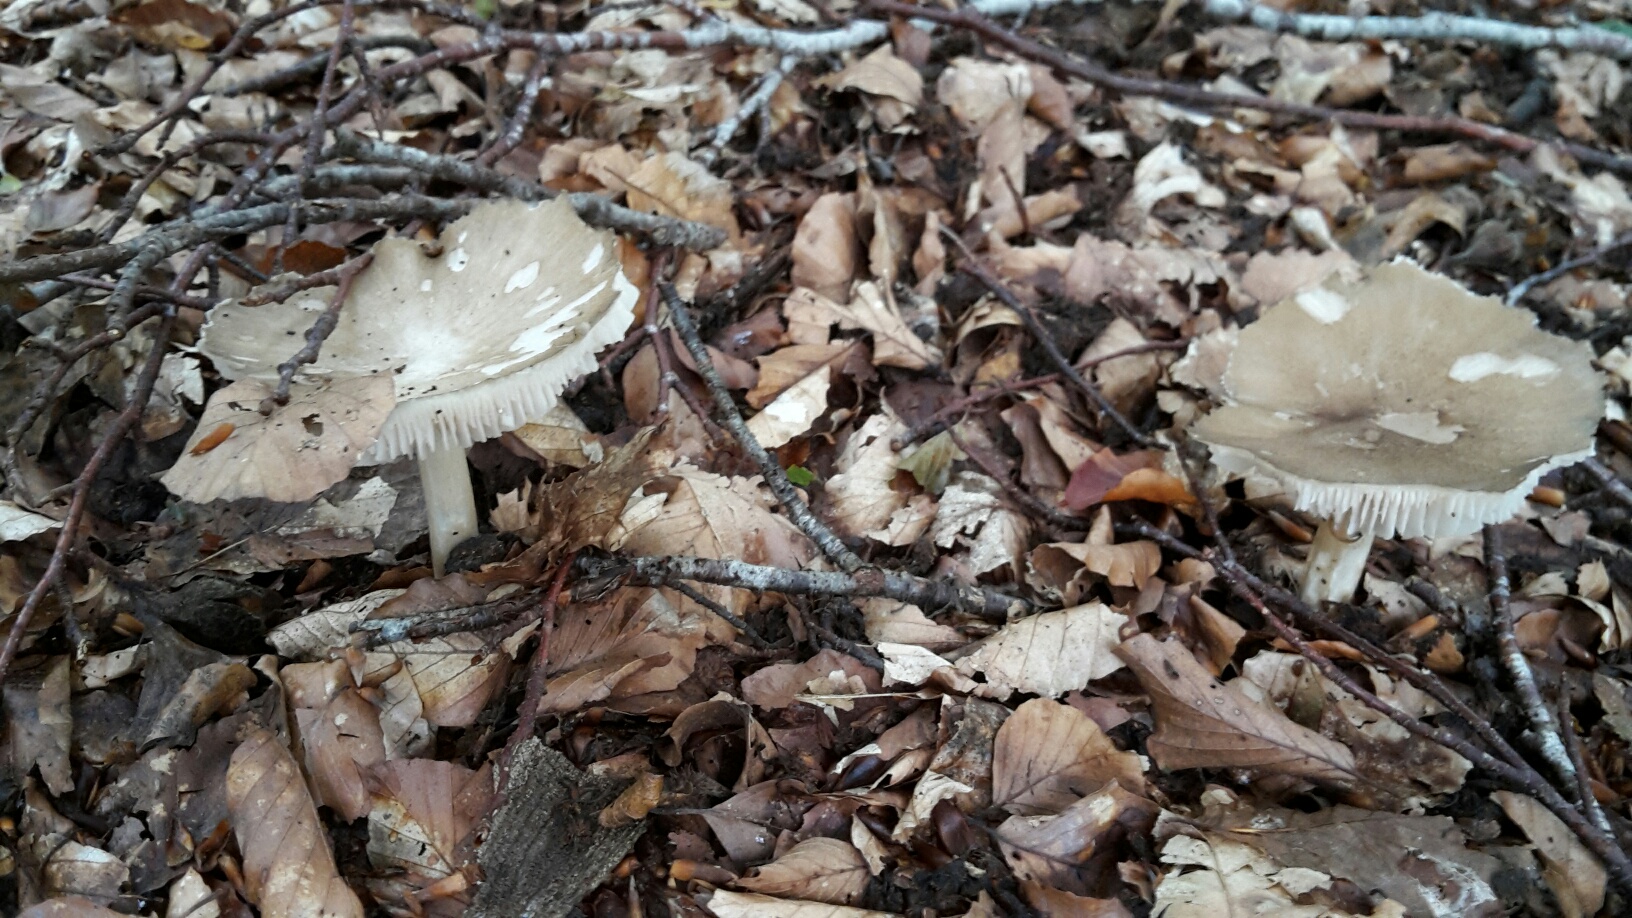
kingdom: Fungi
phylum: Basidiomycota
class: Agaricomycetes
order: Agaricales
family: Tricholomataceae
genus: Megacollybia
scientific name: Megacollybia platyphylla
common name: bredbladet væbnerhat
